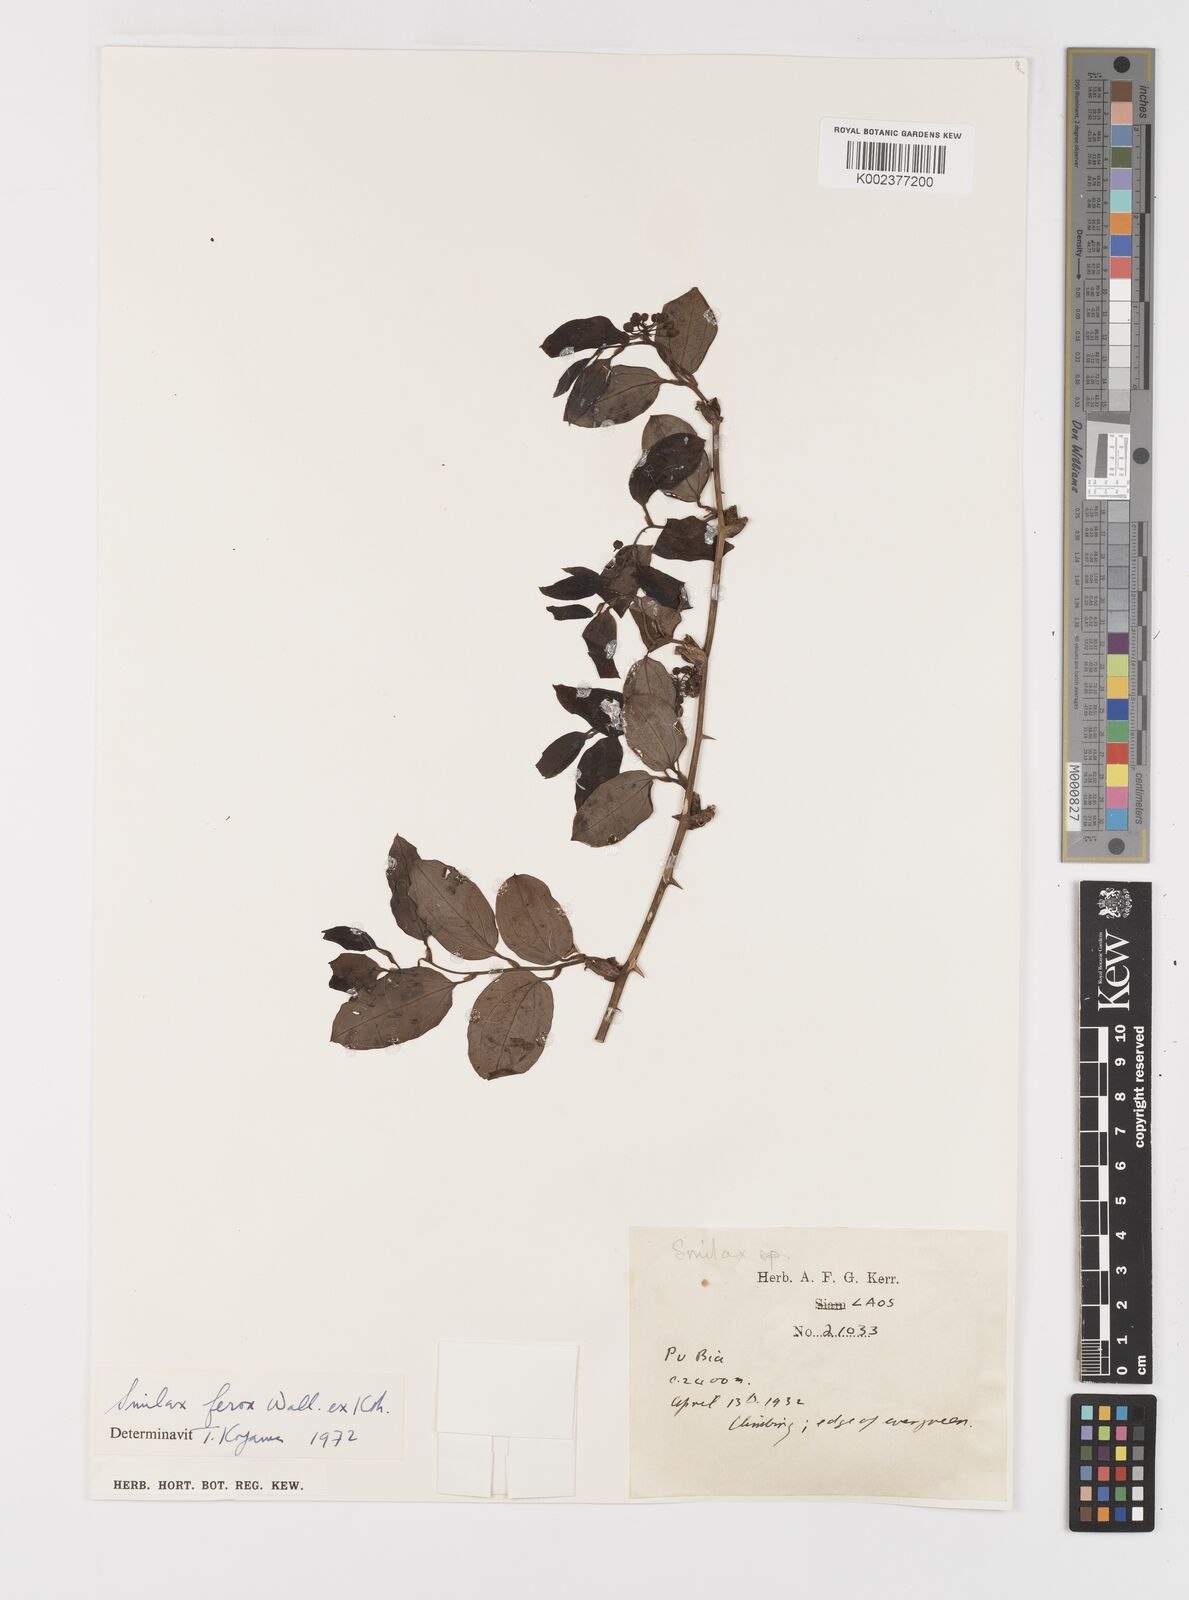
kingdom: Plantae
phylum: Tracheophyta
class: Liliopsida
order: Liliales
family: Smilacaceae
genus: Smilax
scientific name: Smilax ferox
